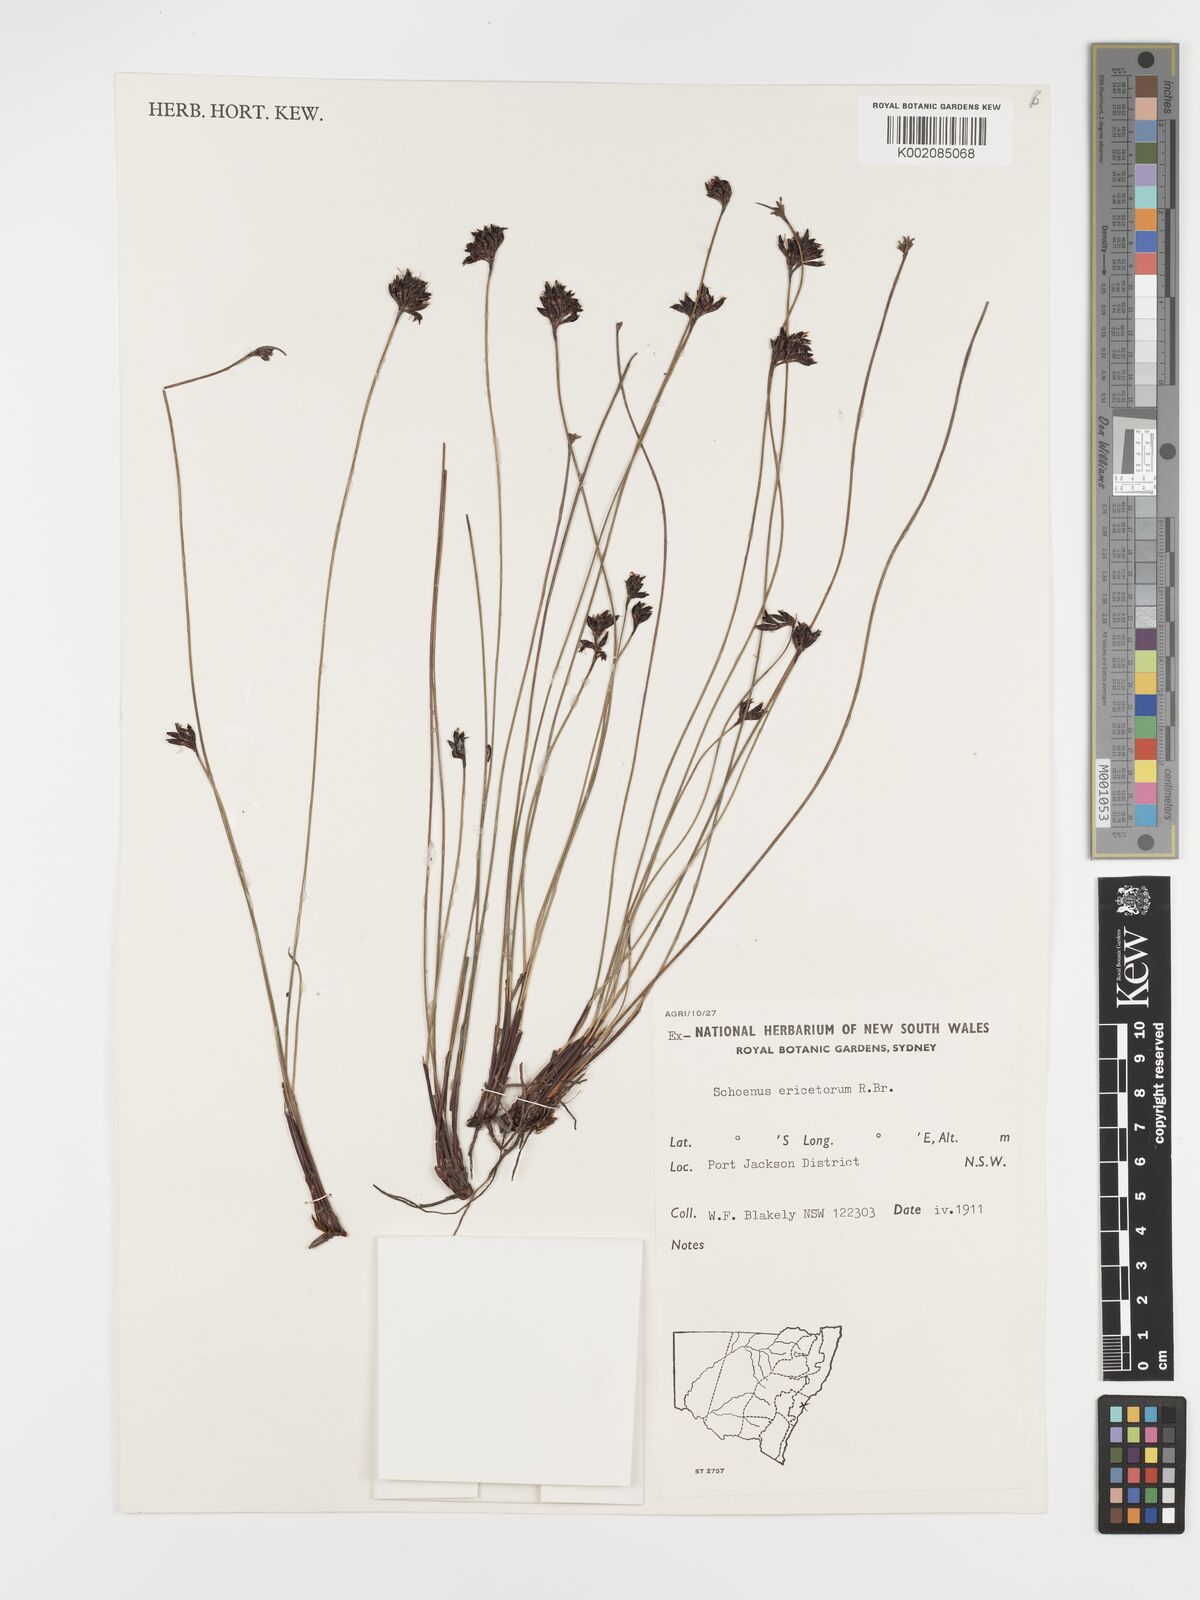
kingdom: Plantae
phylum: Tracheophyta
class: Liliopsida
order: Poales
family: Cyperaceae
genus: Schoenus
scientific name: Schoenus ericetorum
